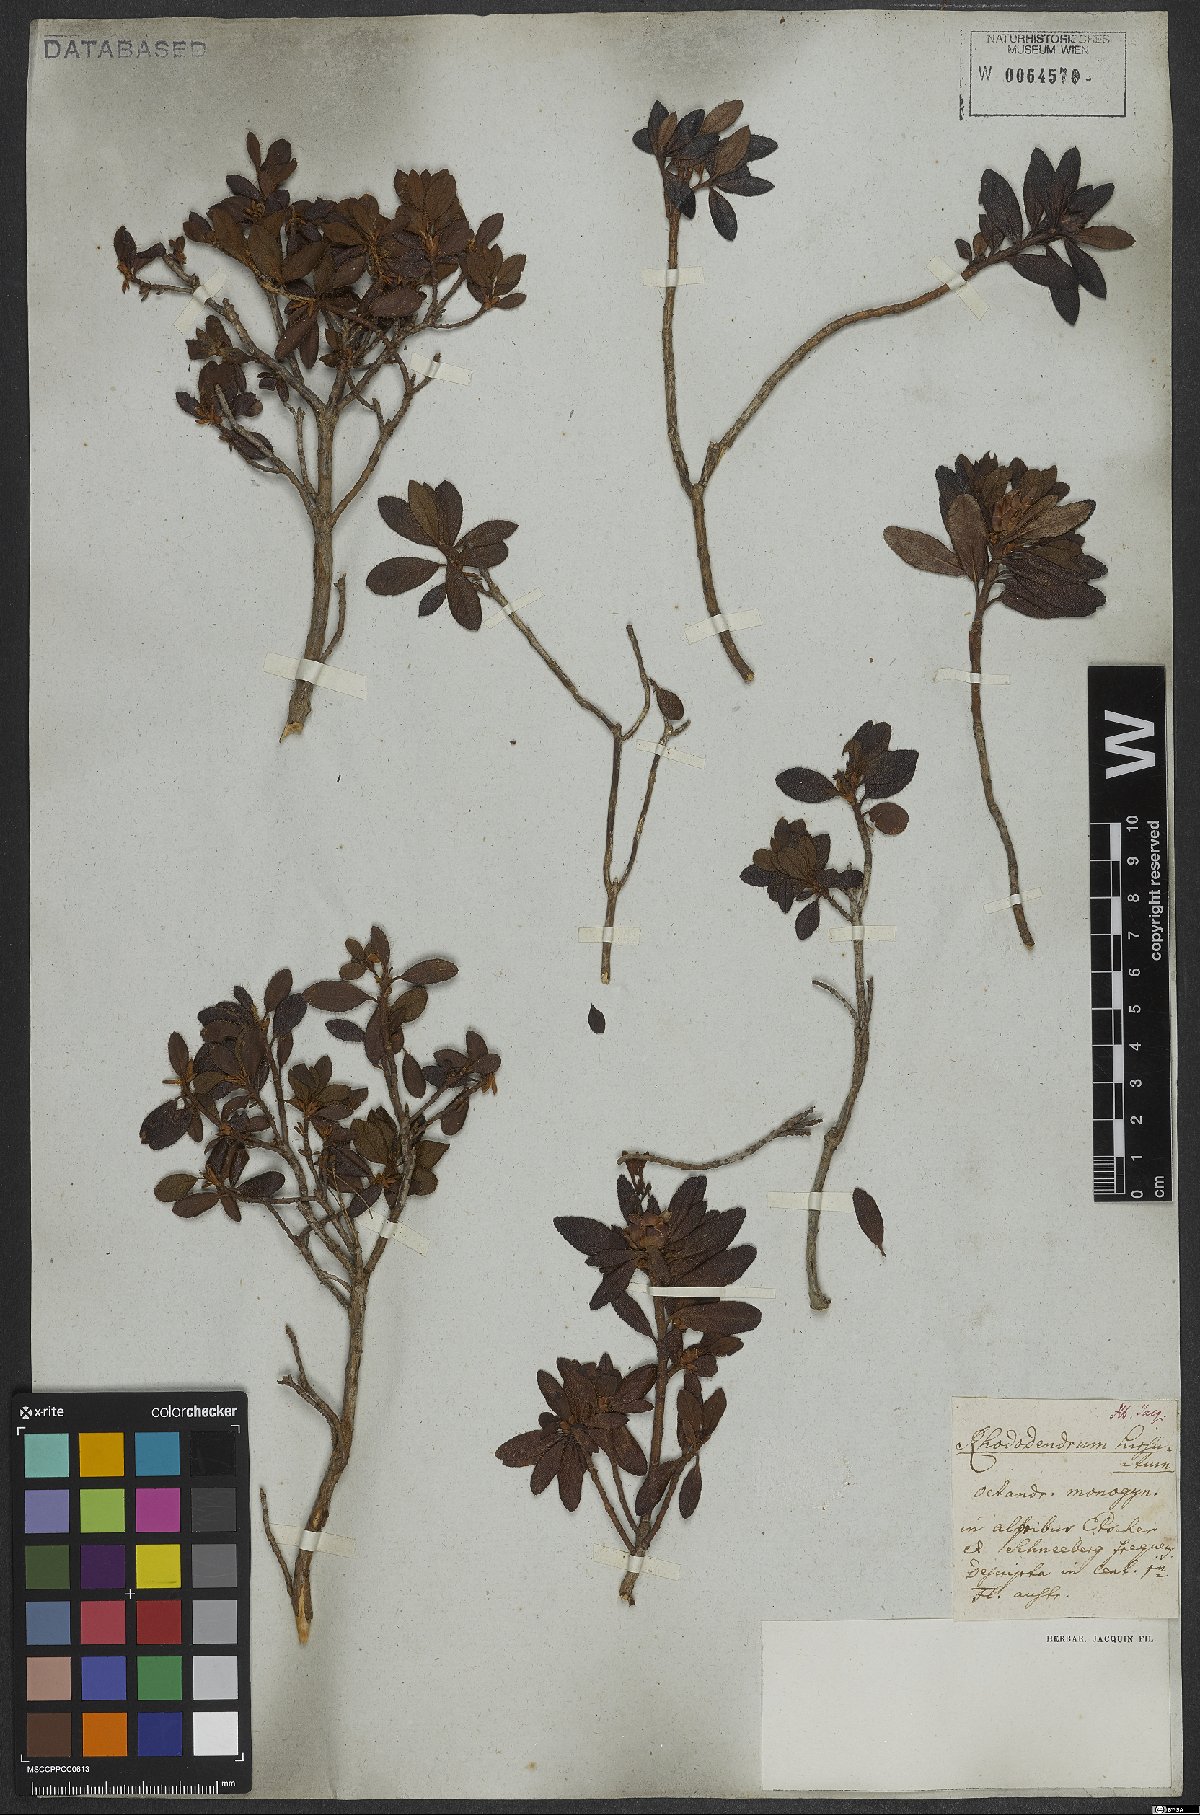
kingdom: Plantae
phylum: Tracheophyta
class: Magnoliopsida
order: Ericales
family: Ericaceae
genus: Rhododendron
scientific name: Rhododendron hirsutum
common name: Hairy alpenrose
